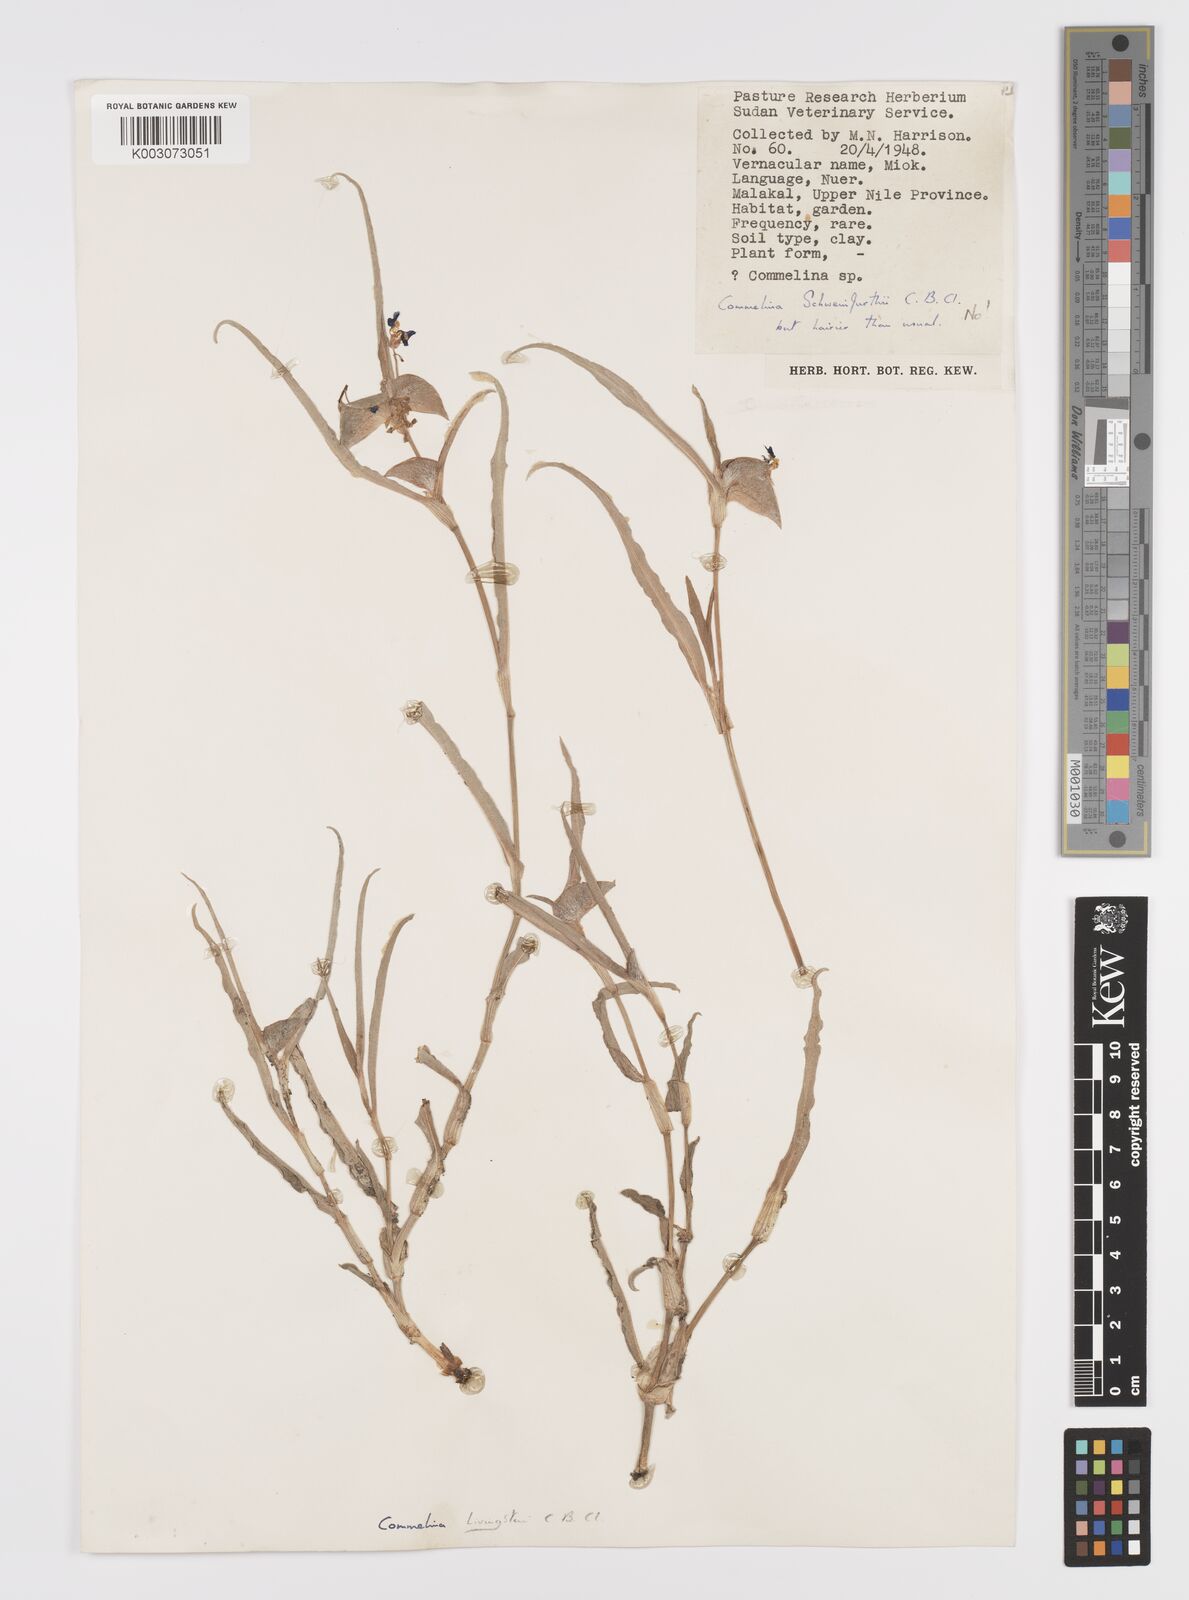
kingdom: Plantae
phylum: Tracheophyta
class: Liliopsida
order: Commelinales
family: Commelinaceae
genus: Commelina
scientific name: Commelina erecta
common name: Blousel blommetjie
